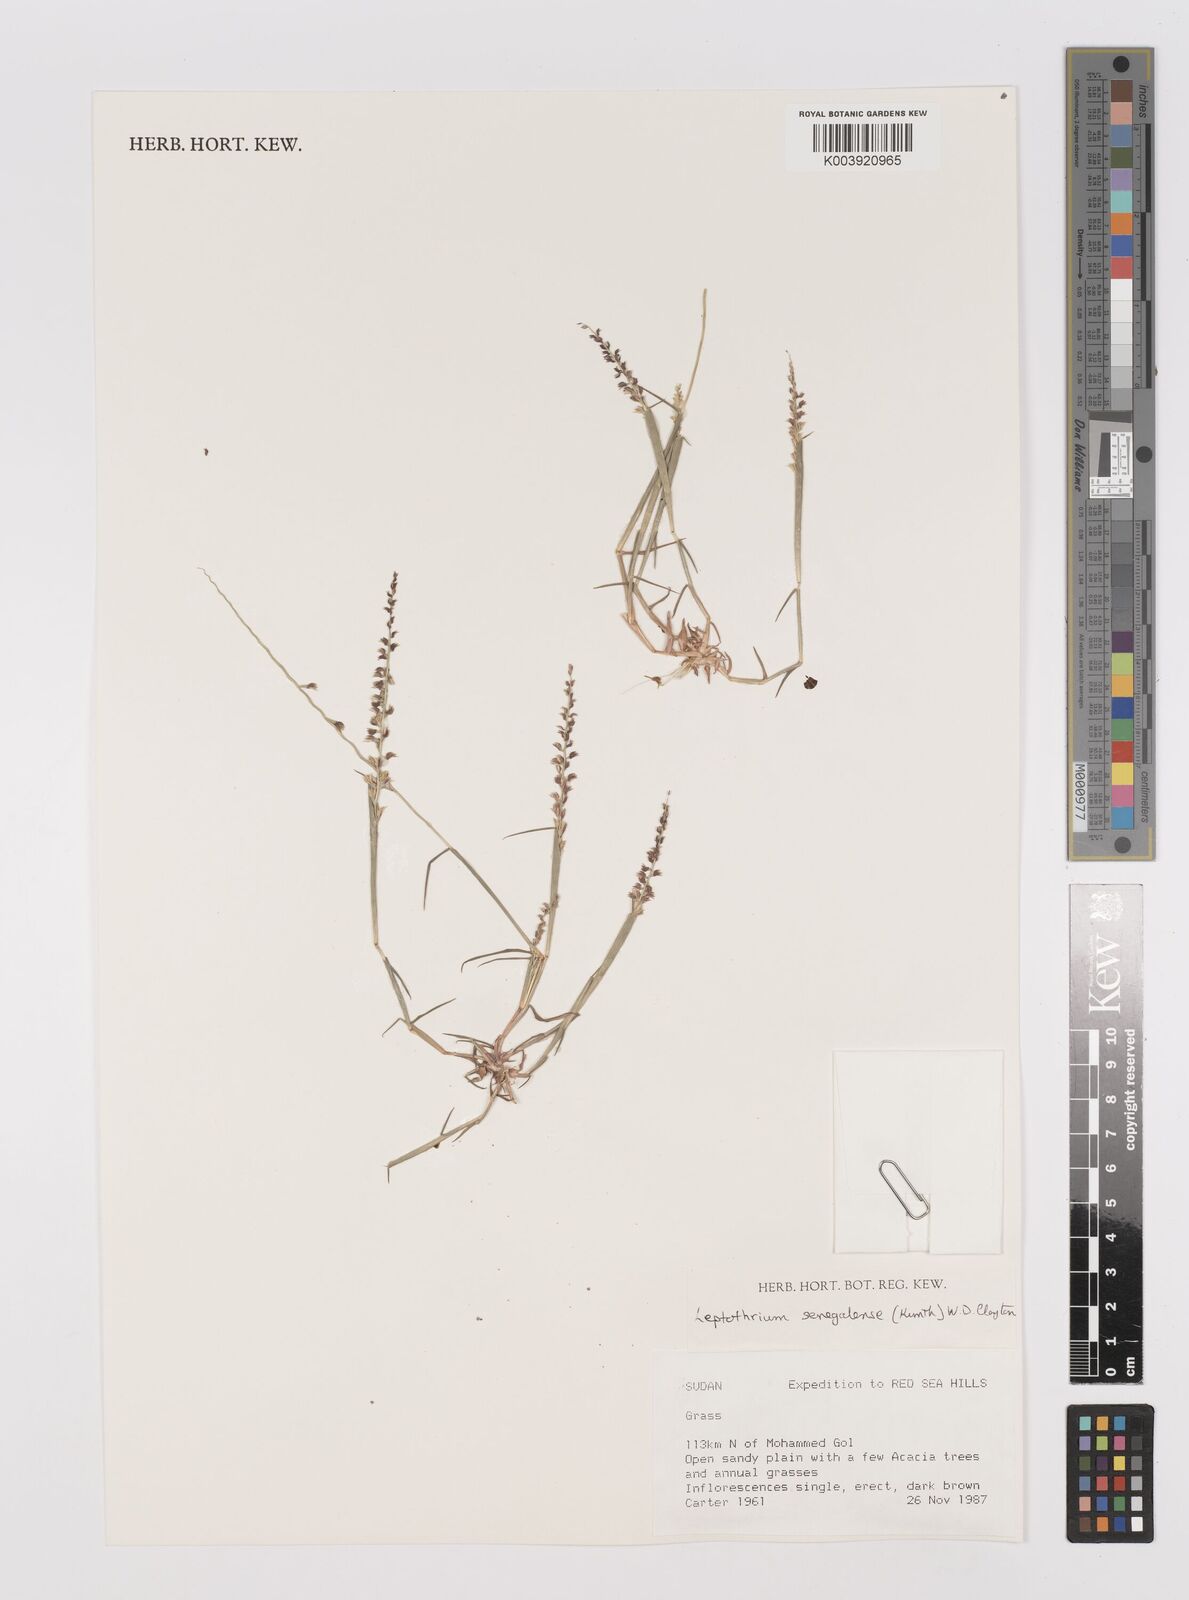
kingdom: Plantae
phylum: Tracheophyta
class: Liliopsida
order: Poales
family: Poaceae
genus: Leptothrium
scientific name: Leptothrium senegalense
